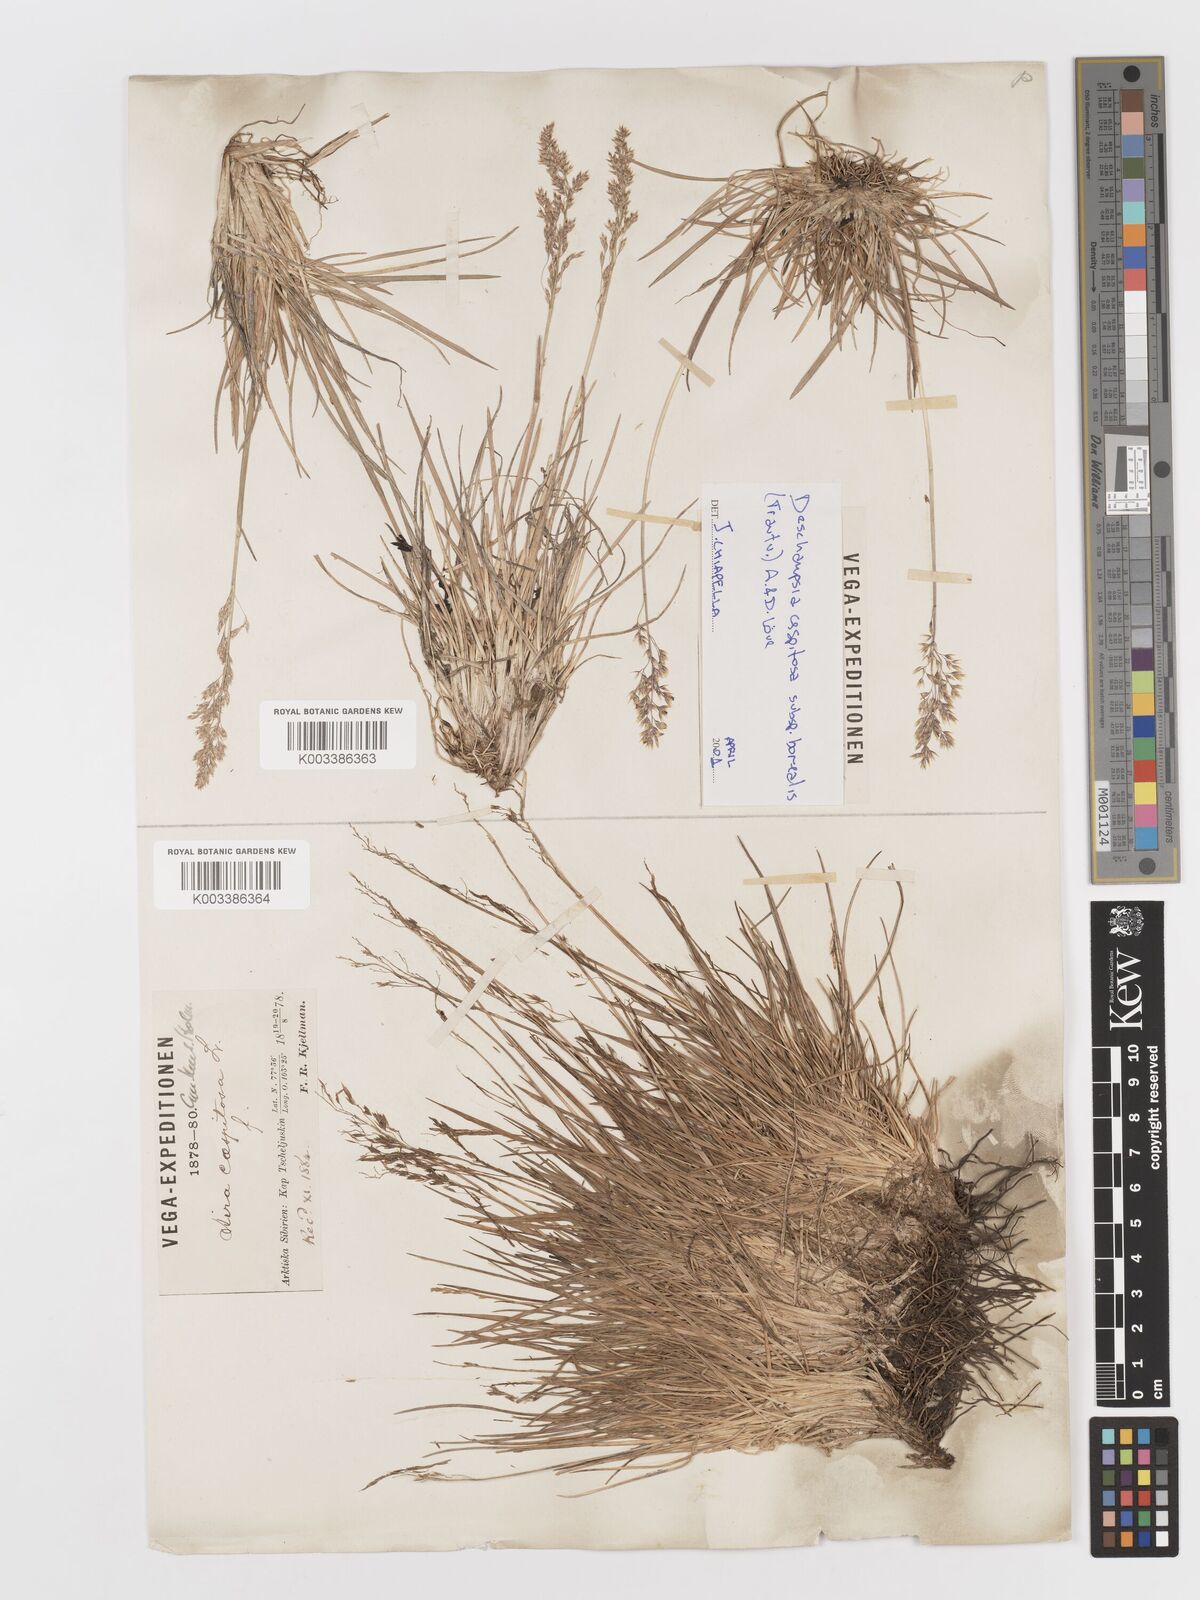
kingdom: Plantae
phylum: Tracheophyta
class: Liliopsida
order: Poales
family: Poaceae
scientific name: Poaceae
